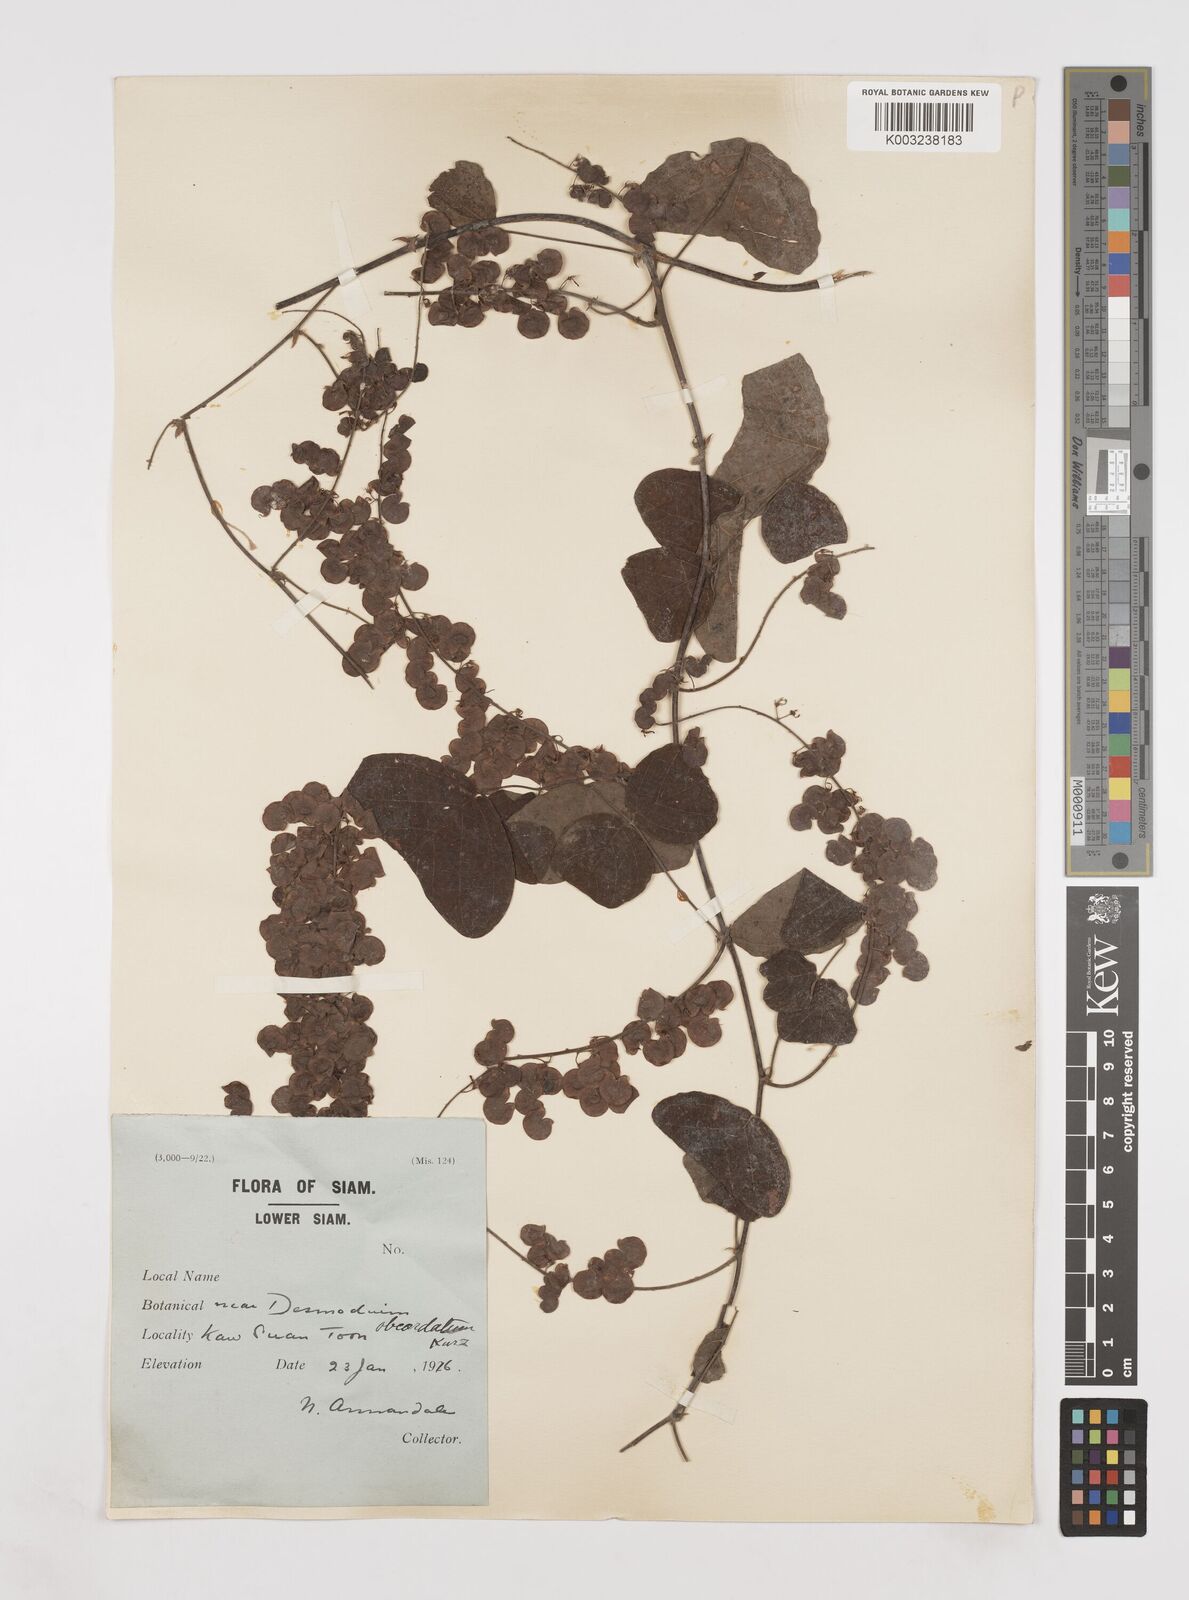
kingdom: Plantae
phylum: Tracheophyta
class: Magnoliopsida
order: Fabales
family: Fabaceae
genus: Hegnera
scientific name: Hegnera obcordata
